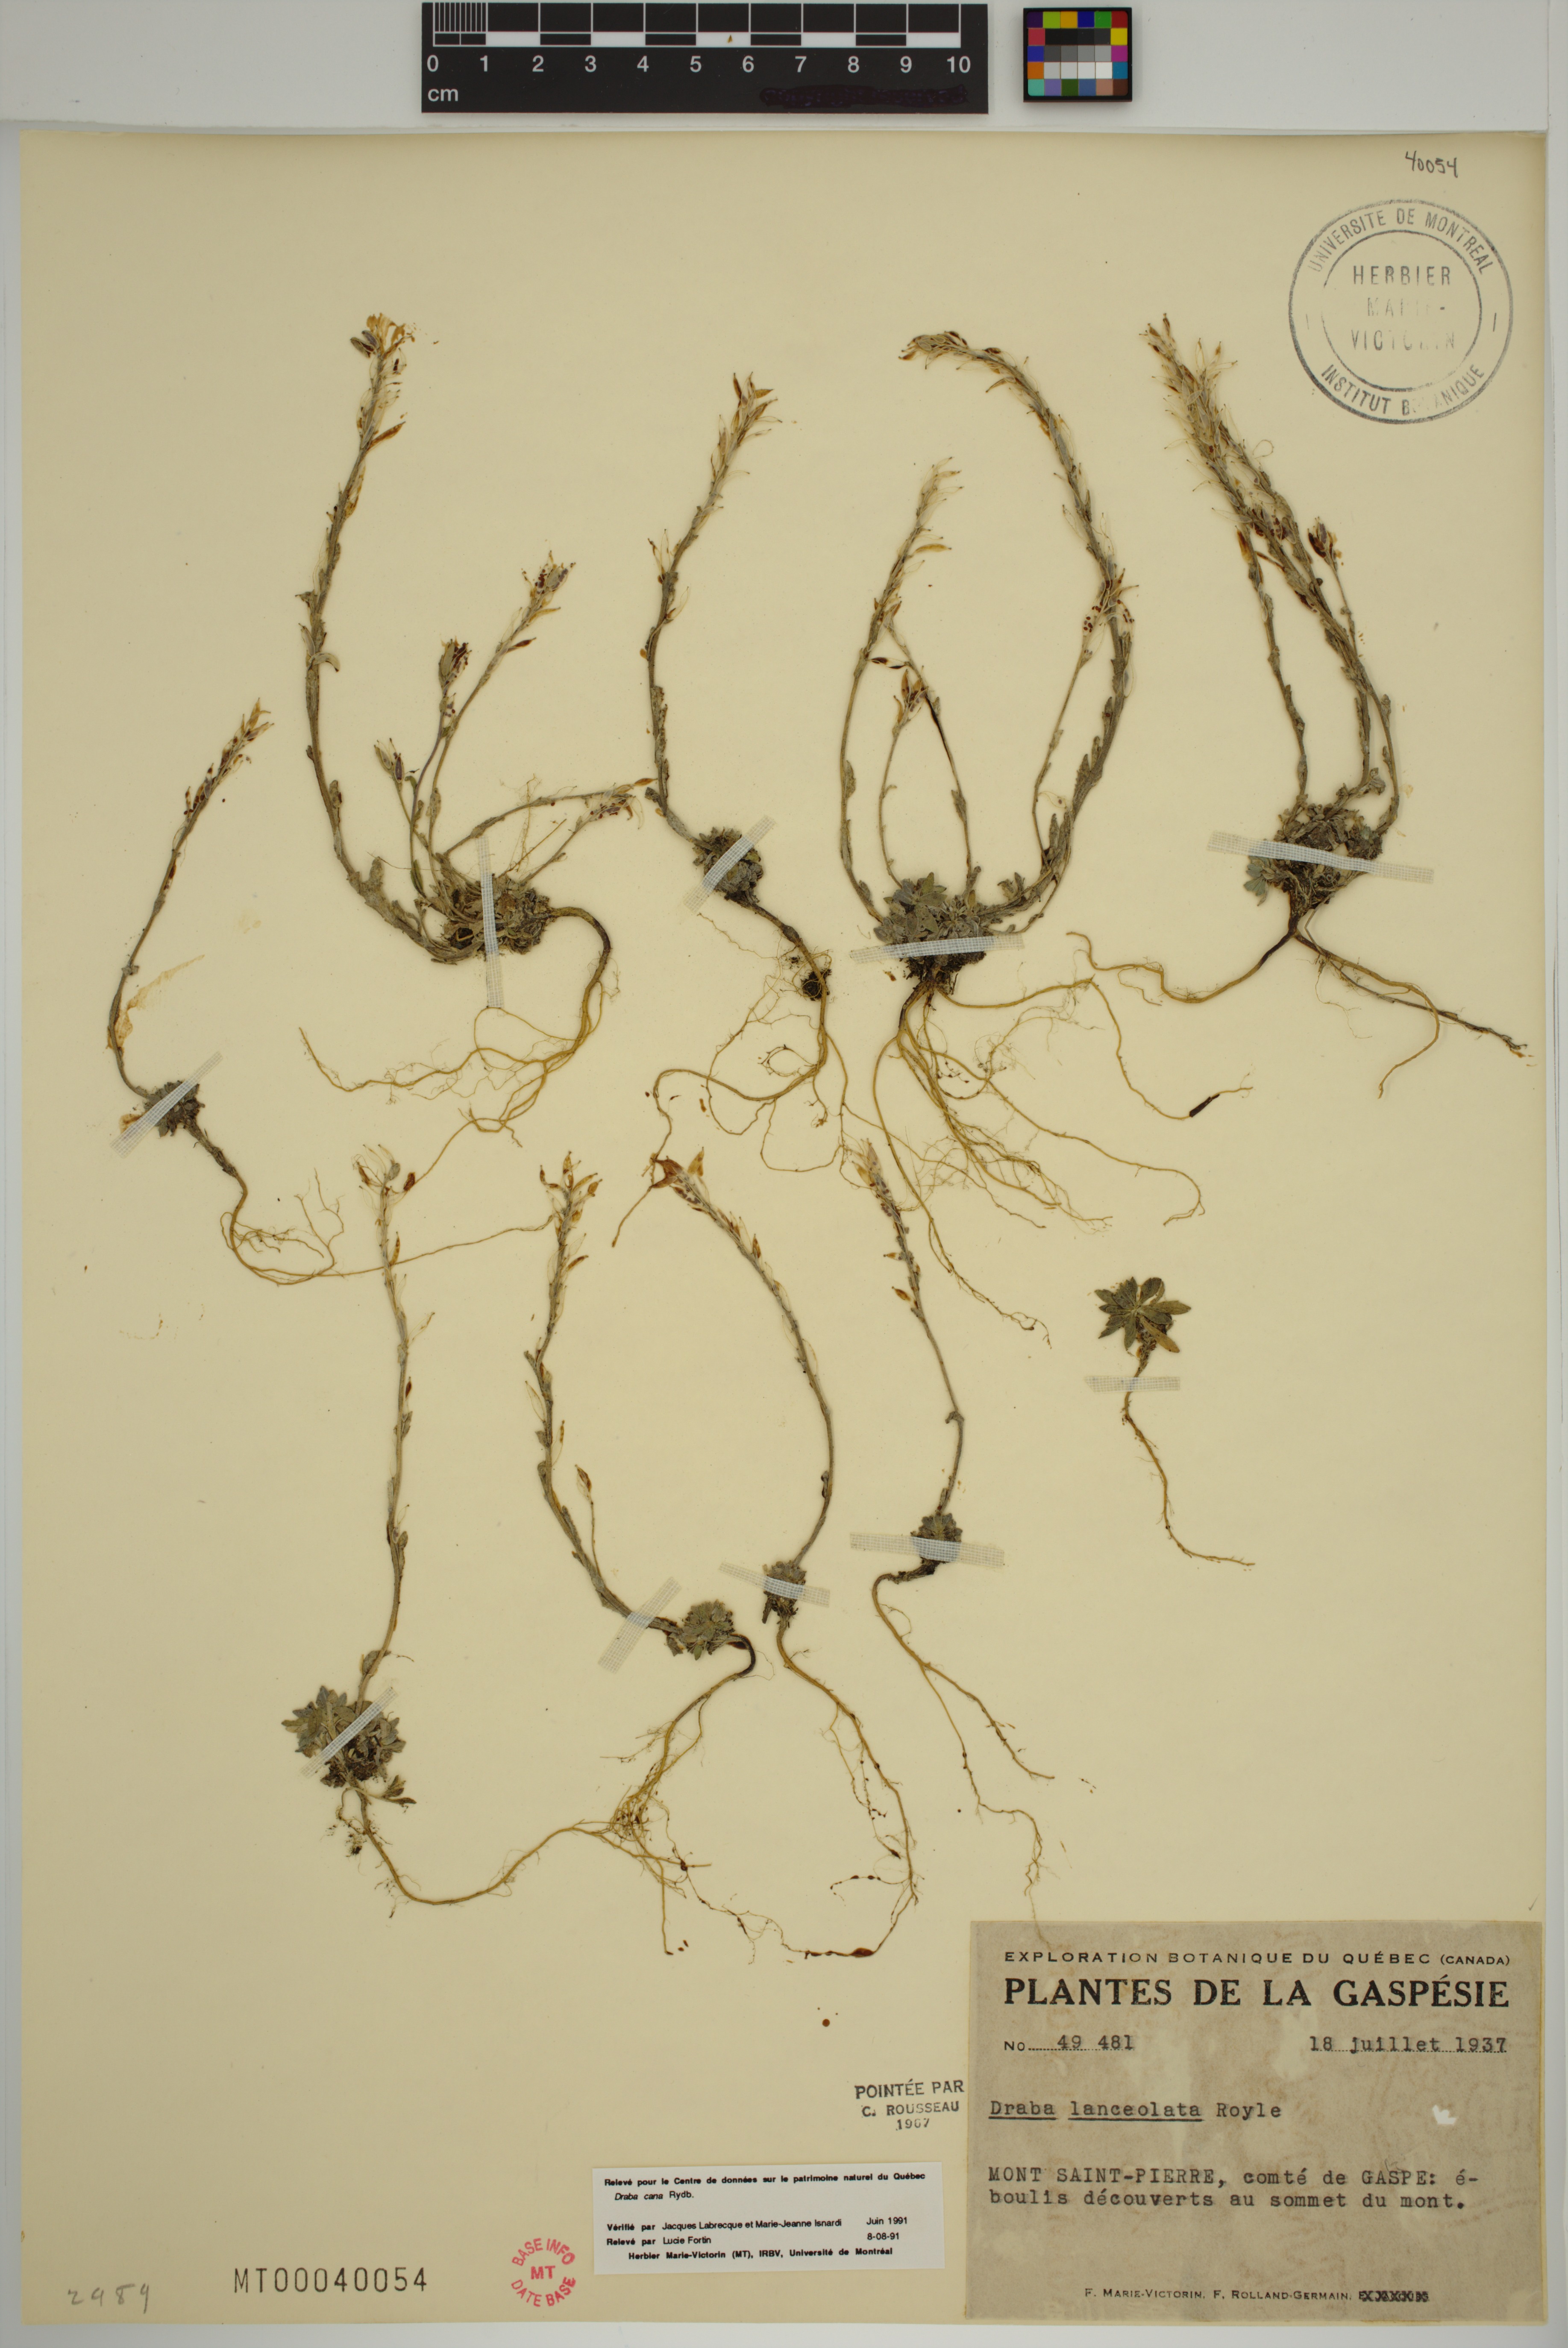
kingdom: Plantae
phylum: Tracheophyta
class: Magnoliopsida
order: Brassicales
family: Brassicaceae
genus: Draba
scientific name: Draba cana
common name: Hoary draba
